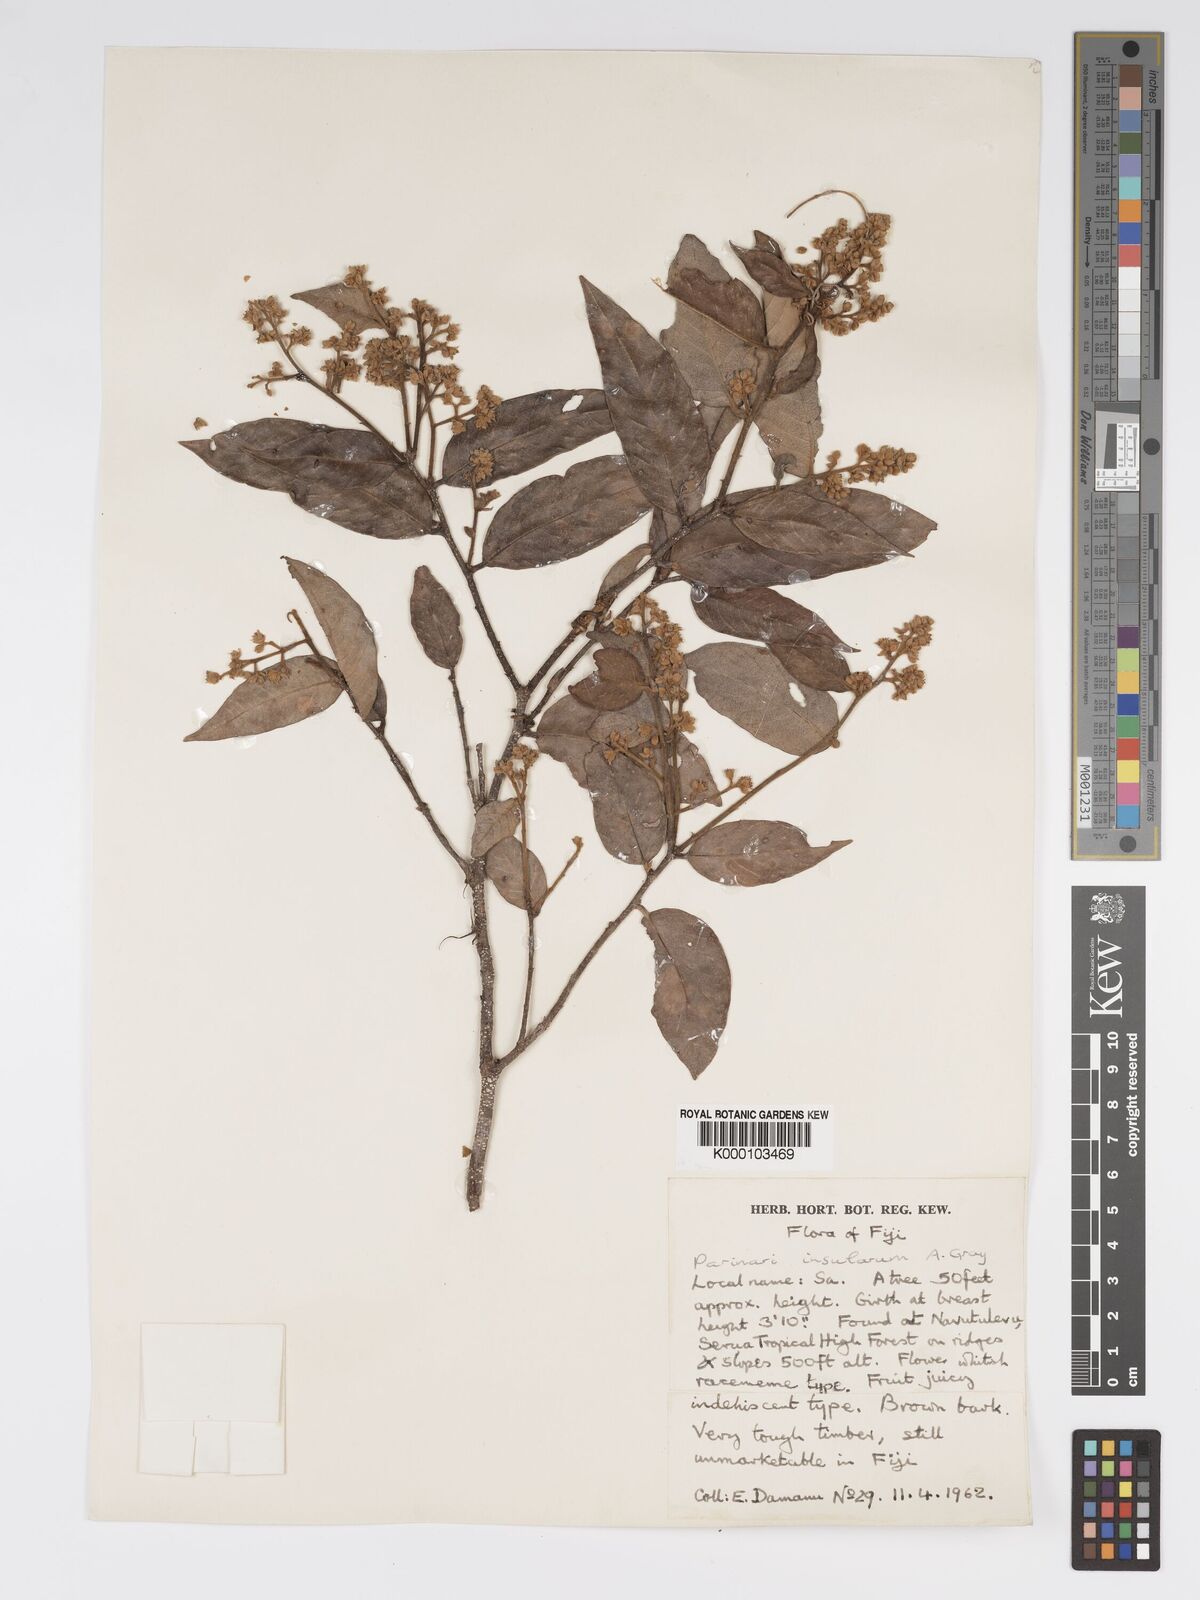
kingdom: Plantae
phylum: Tracheophyta
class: Magnoliopsida
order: Malpighiales
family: Chrysobalanaceae
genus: Parinari
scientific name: Parinari insularum
